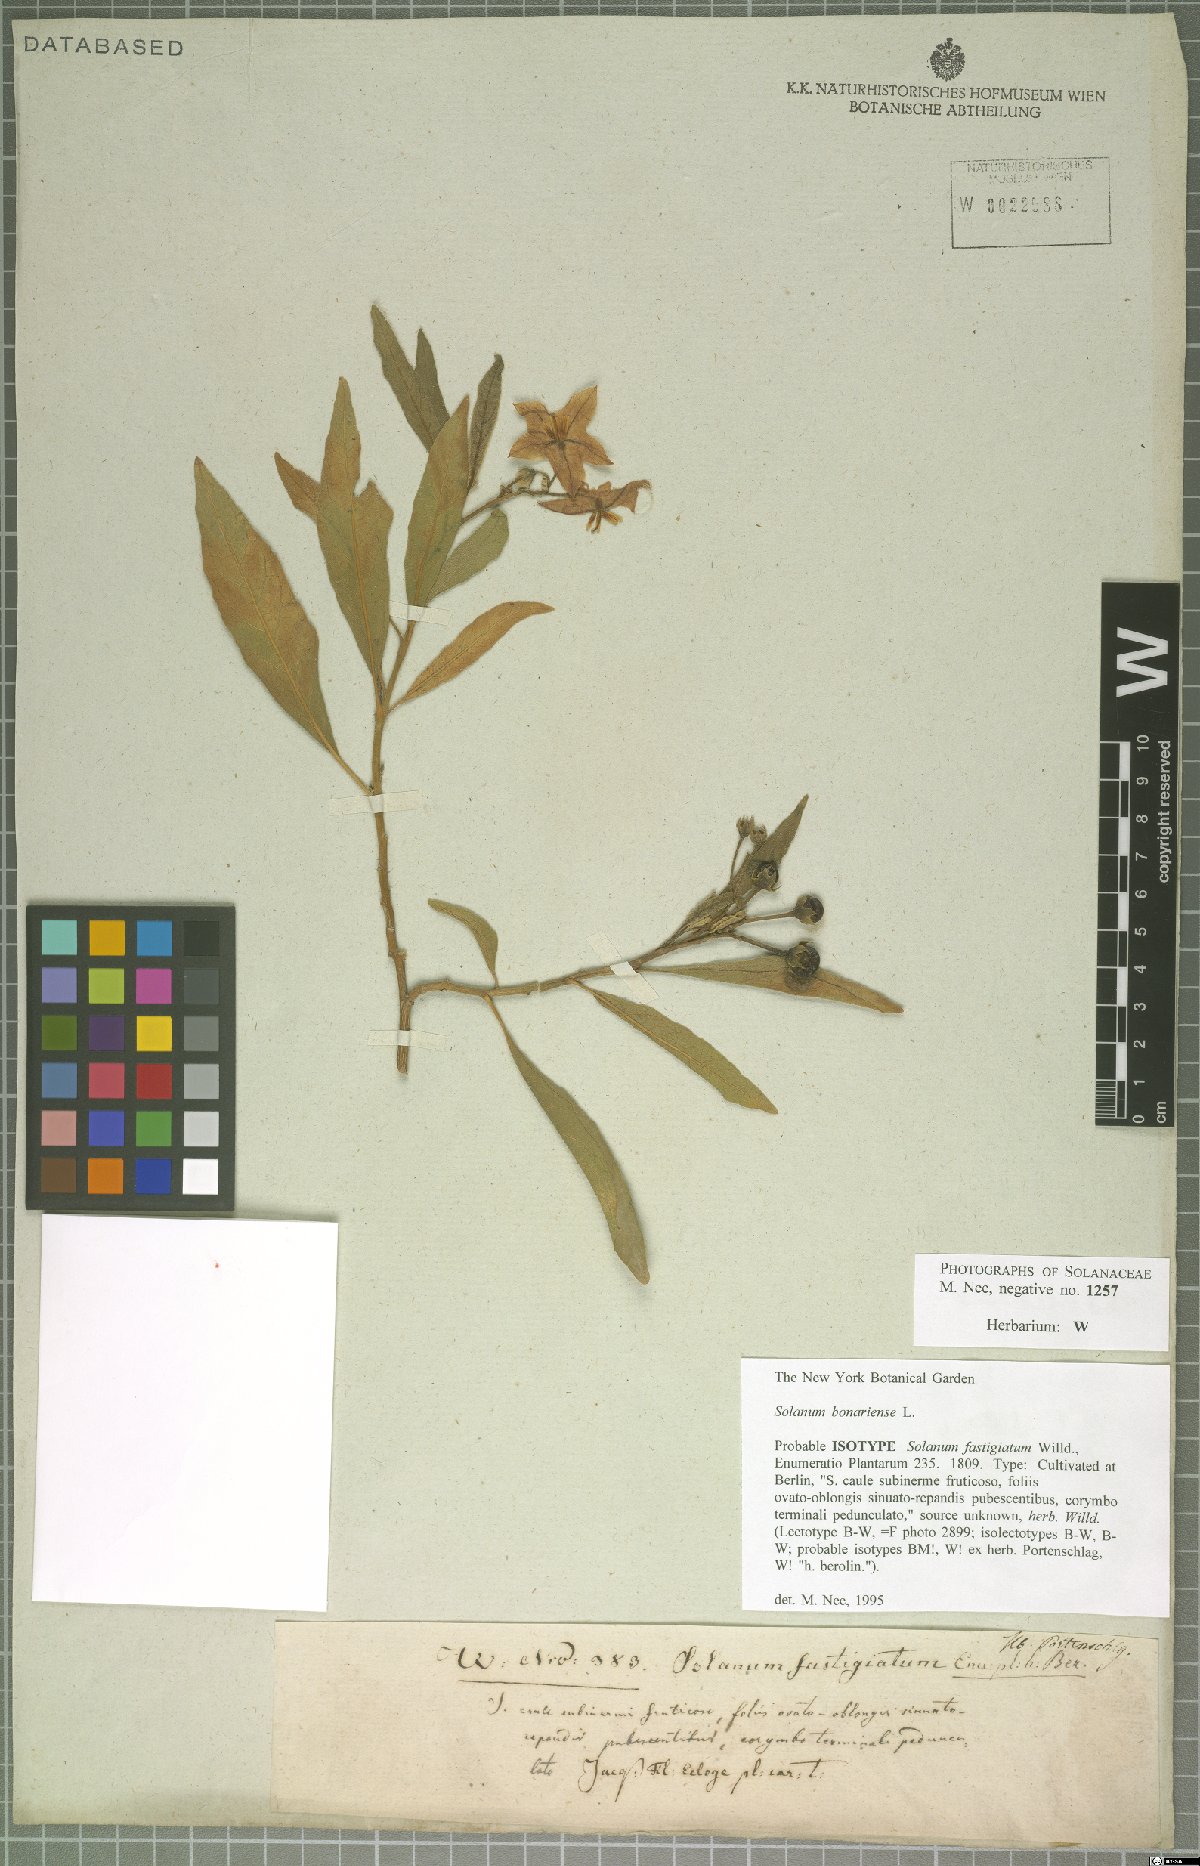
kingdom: Plantae
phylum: Tracheophyta
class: Magnoliopsida
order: Solanales
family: Solanaceae
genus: Solanum
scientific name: Solanum bonariense
